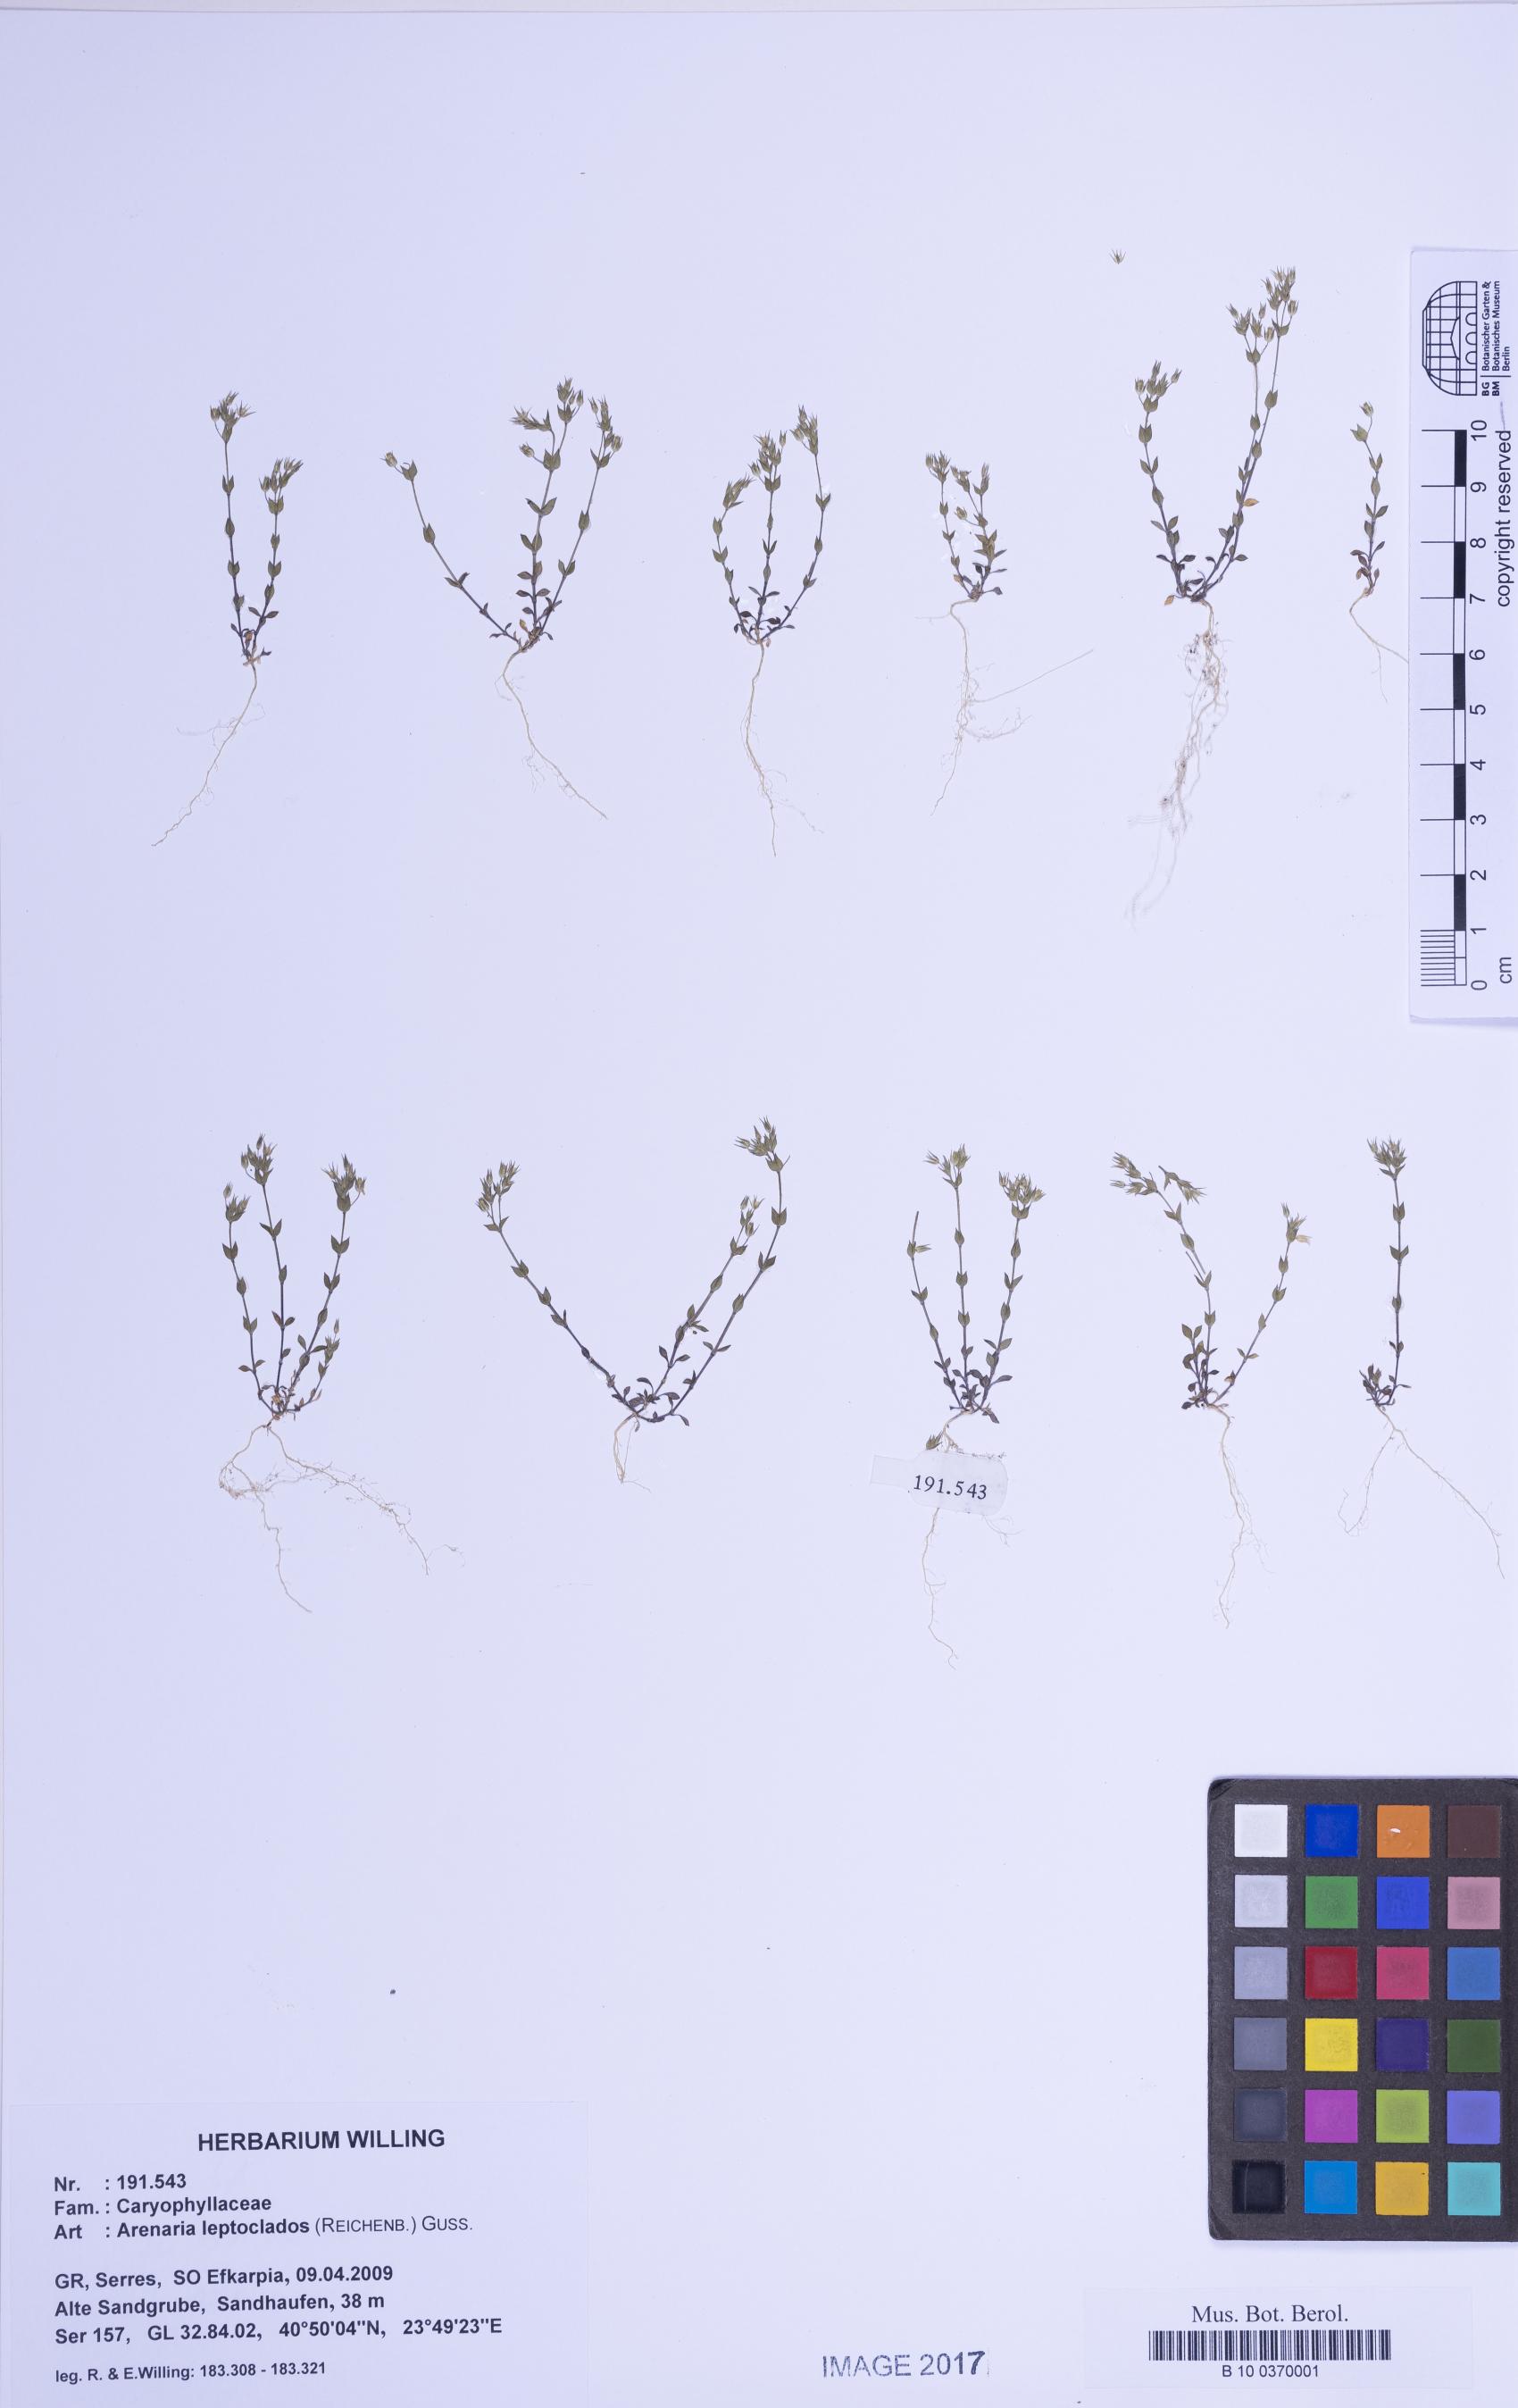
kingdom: Plantae
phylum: Tracheophyta
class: Magnoliopsida
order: Caryophyllales
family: Caryophyllaceae
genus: Arenaria
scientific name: Arenaria leptoclados
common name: Thyme-leaved sandwort
